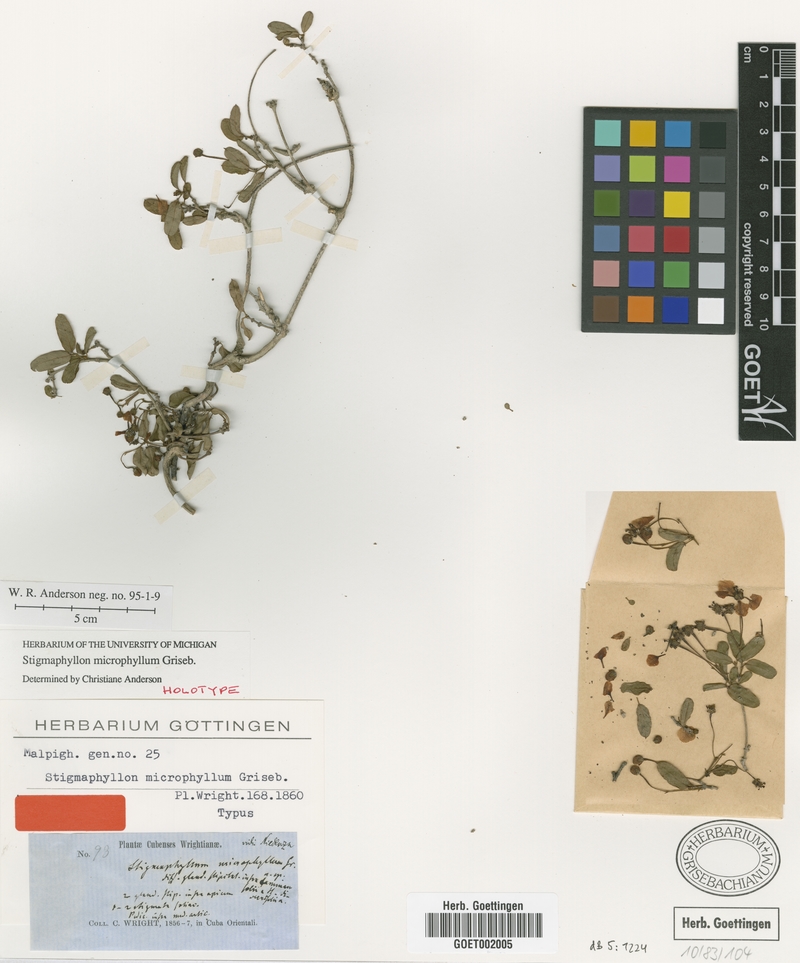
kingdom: Plantae
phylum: Tracheophyta
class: Magnoliopsida
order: Malpighiales
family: Malpighiaceae
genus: Stigmaphyllon
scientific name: Stigmaphyllon microphyllum
